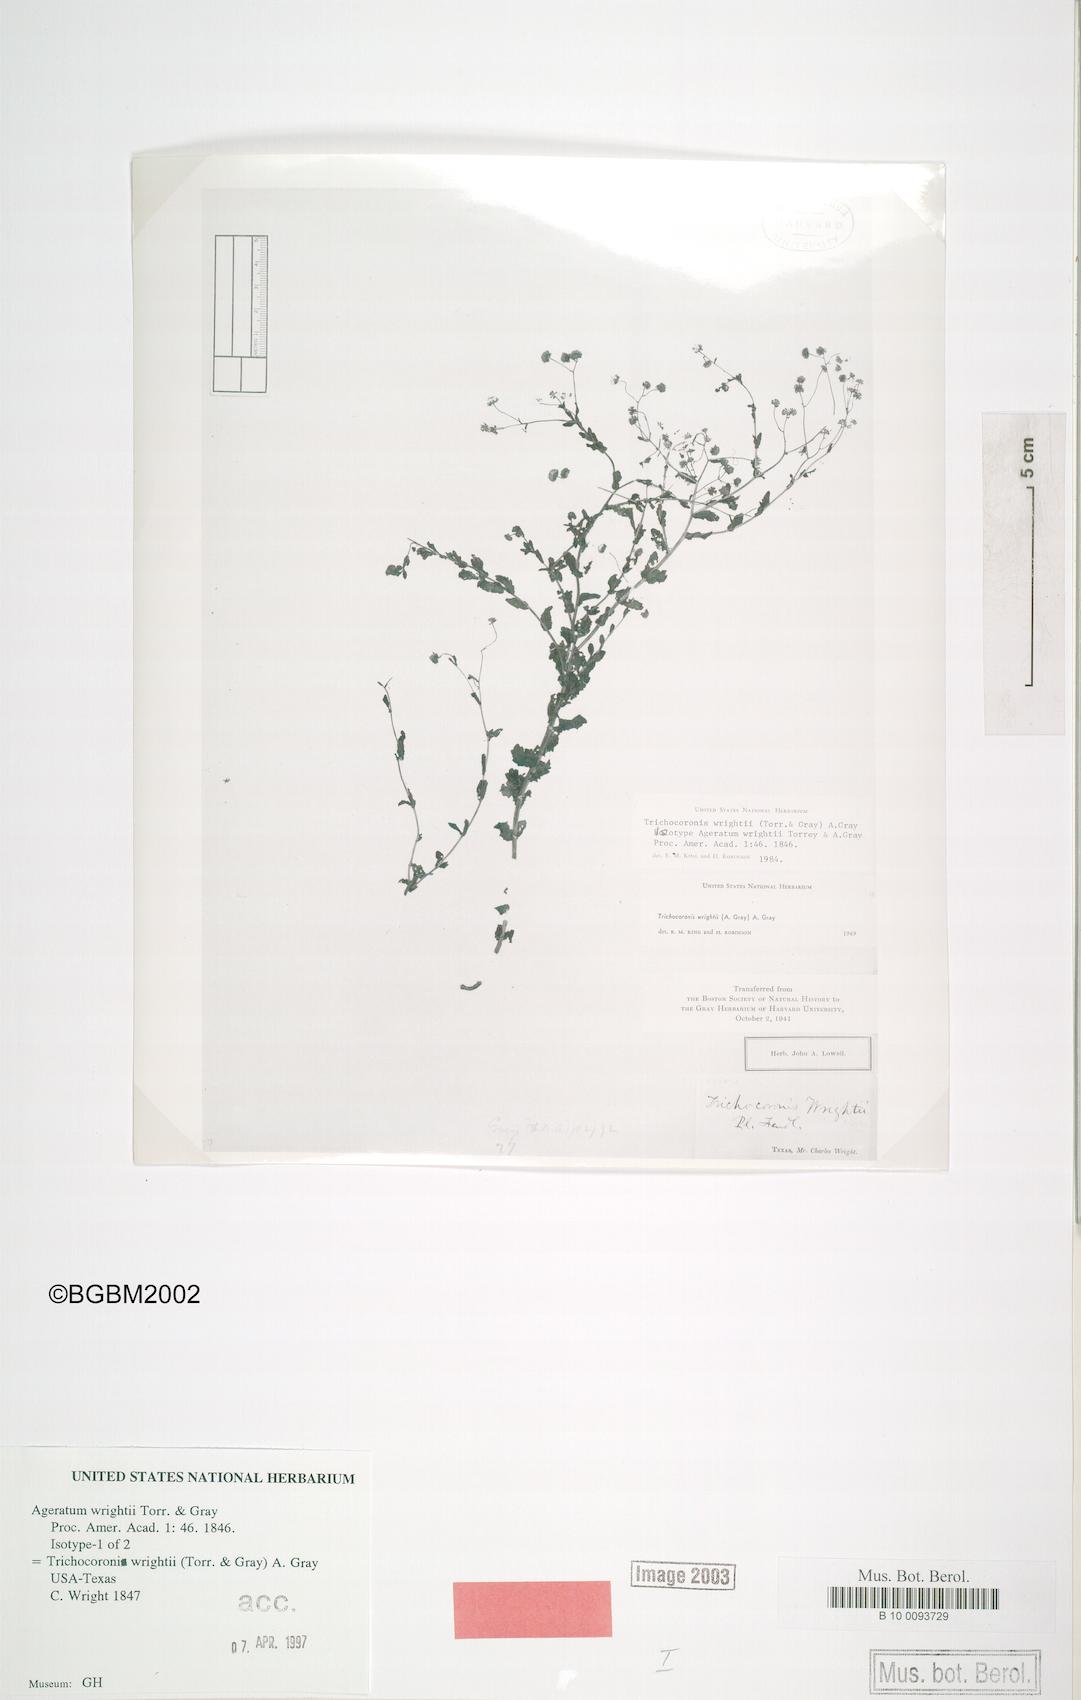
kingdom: Plantae
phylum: Tracheophyta
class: Magnoliopsida
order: Asterales
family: Asteraceae
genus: Trichocoronis
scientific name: Trichocoronis wrightii
